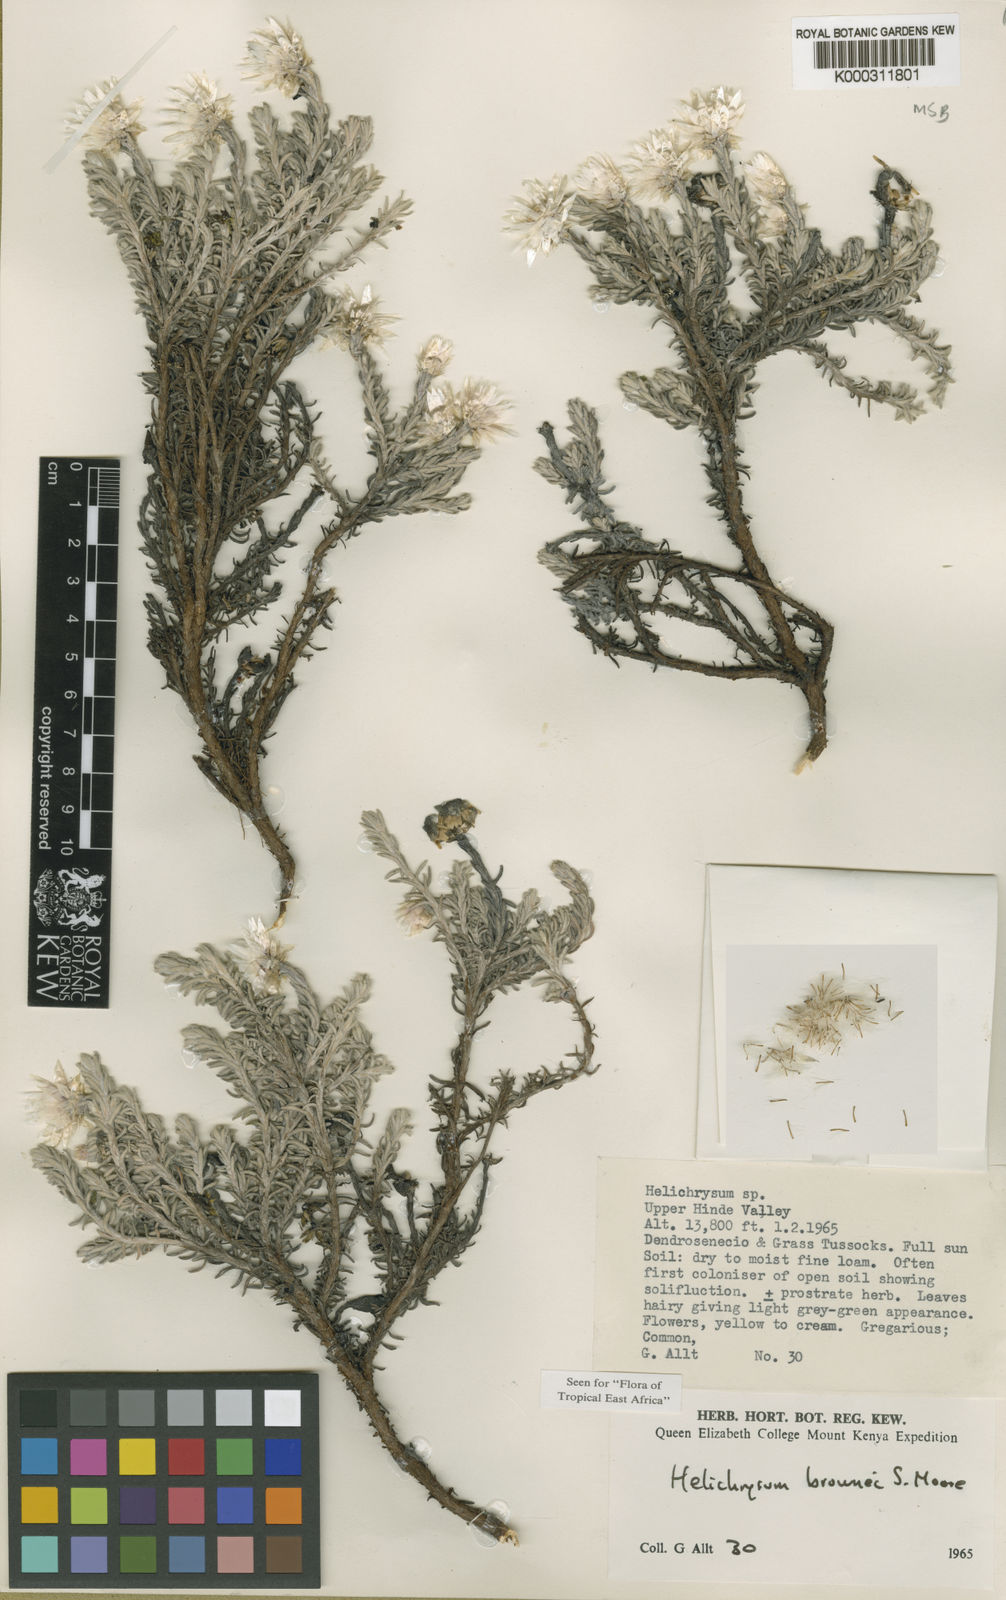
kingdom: Plantae
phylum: Tracheophyta
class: Magnoliopsida
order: Asterales
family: Asteraceae
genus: Helichrysum
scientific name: Helichrysum brownei
